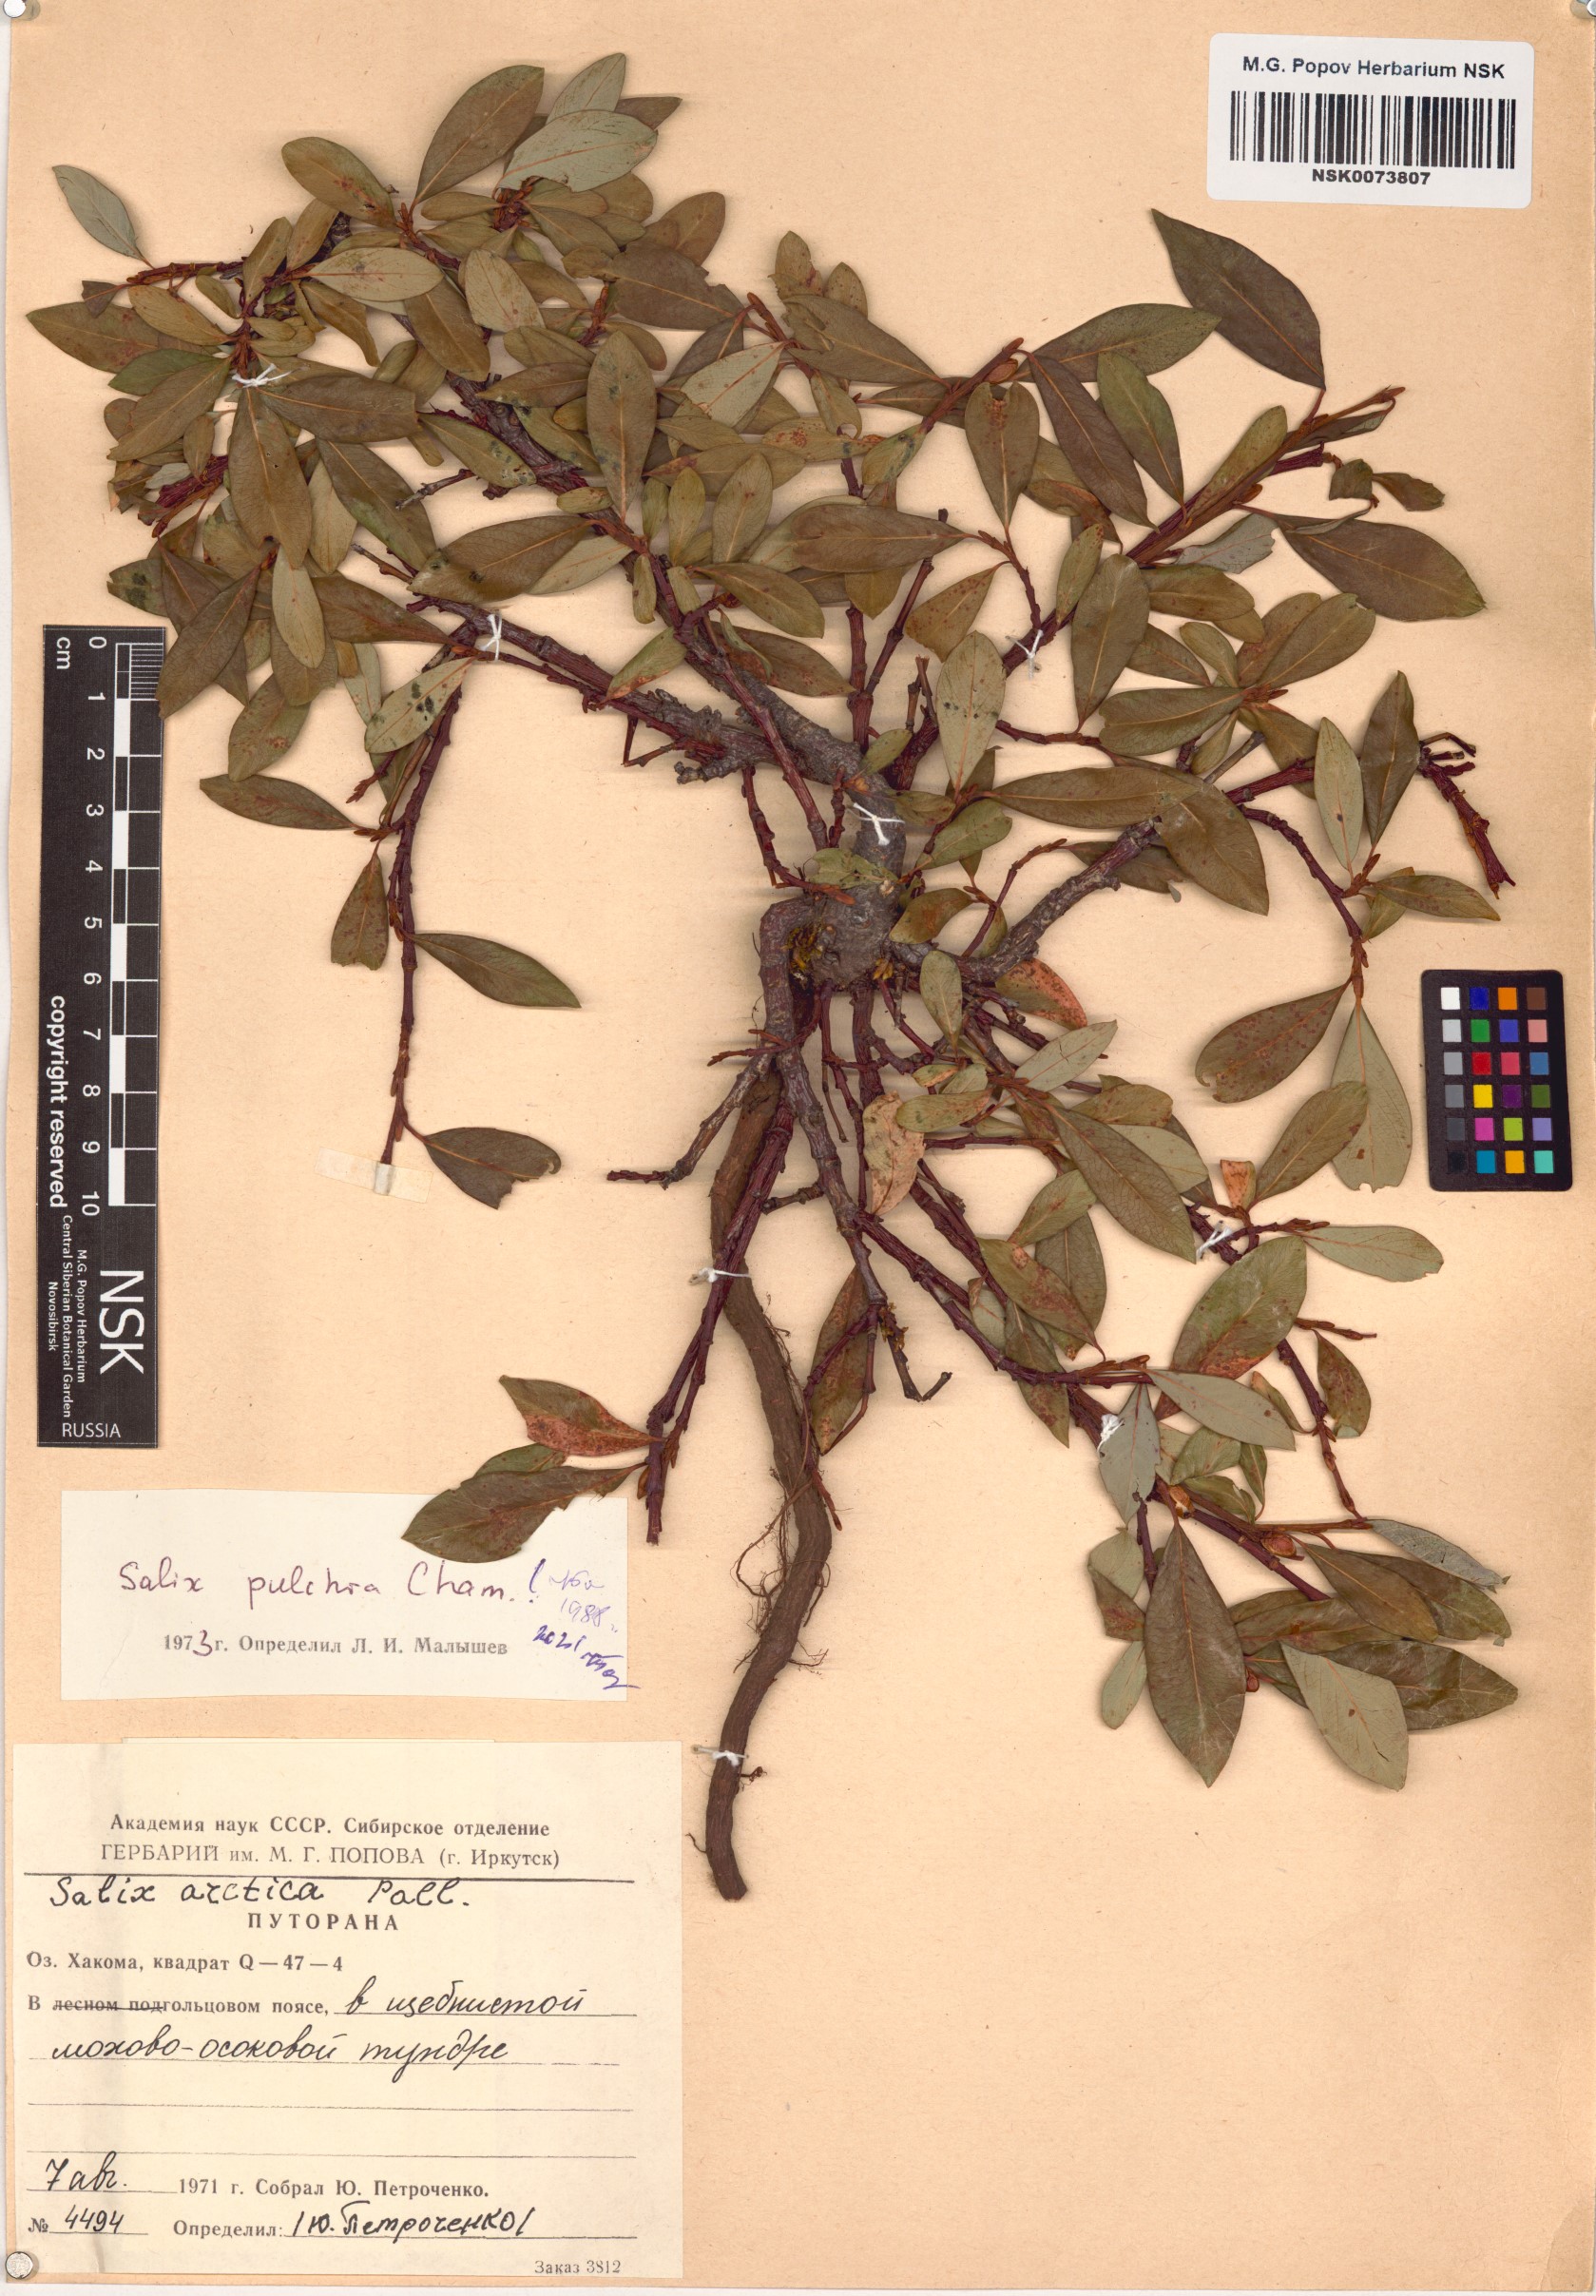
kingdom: Plantae
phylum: Tracheophyta
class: Magnoliopsida
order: Malpighiales
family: Salicaceae
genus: Salix
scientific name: Salix pulchra
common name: Diamond-leaved willow
